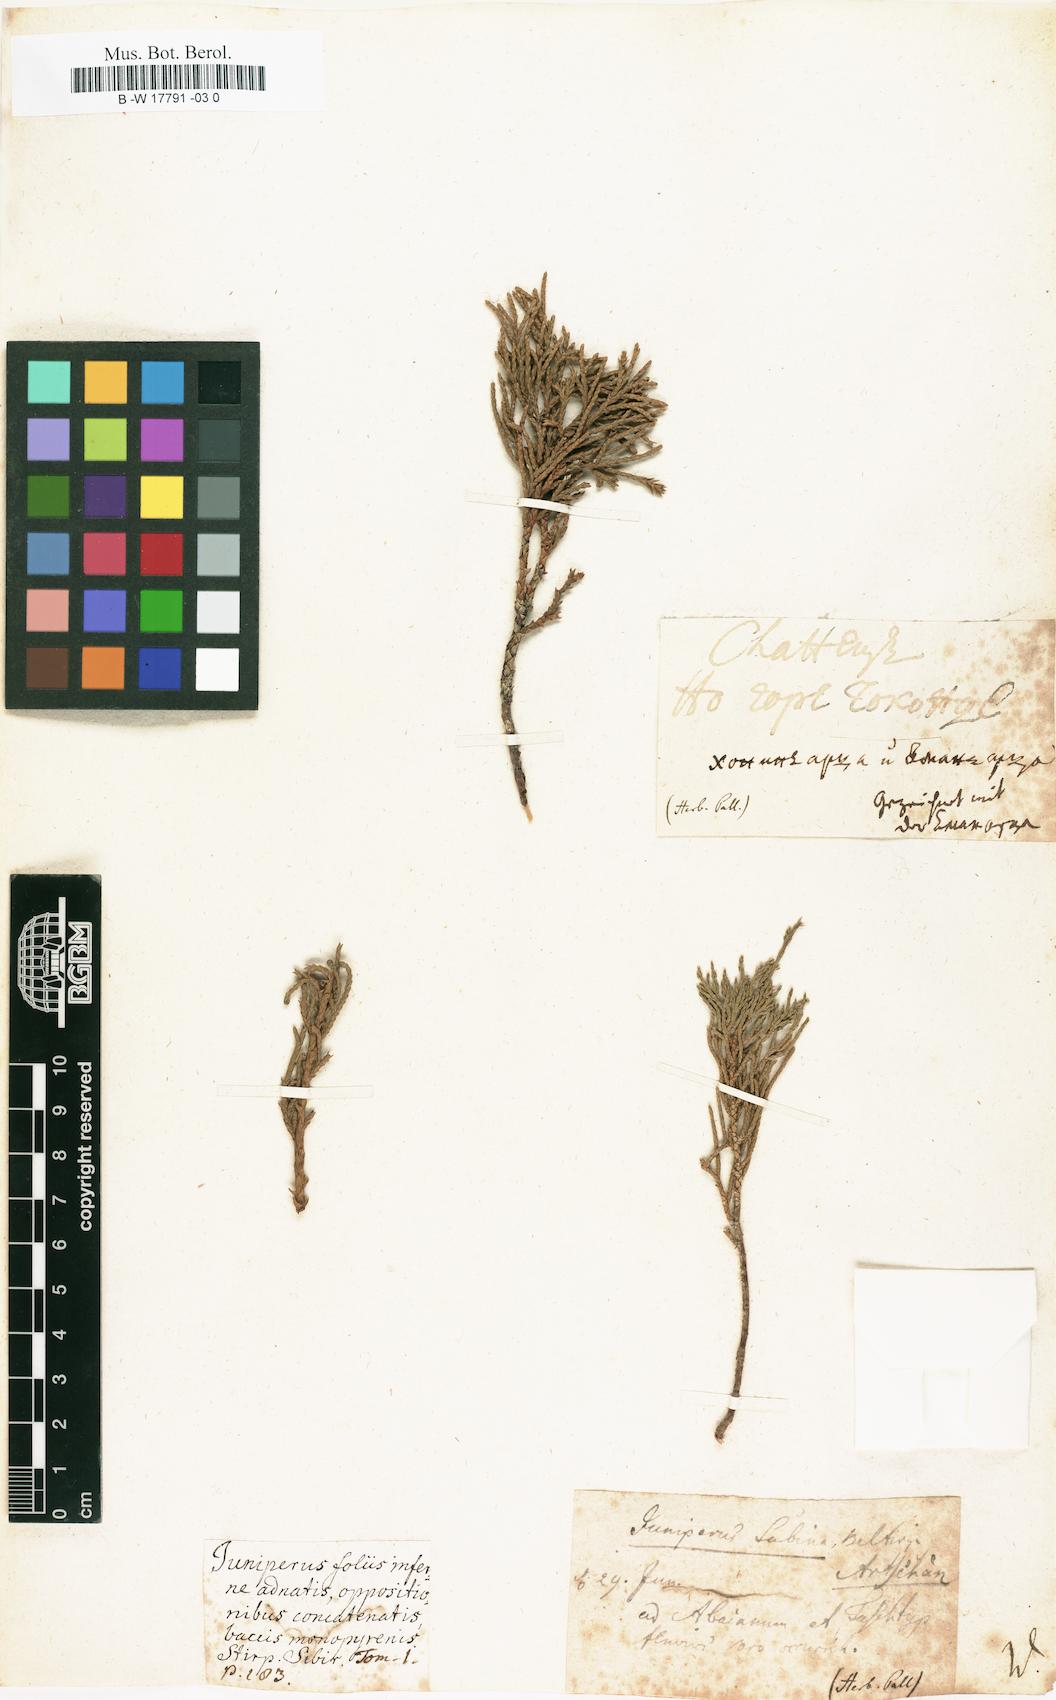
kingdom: Plantae
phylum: Tracheophyta
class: Pinopsida
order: Pinales
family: Cupressaceae
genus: Cupressus
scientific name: Cupressus
